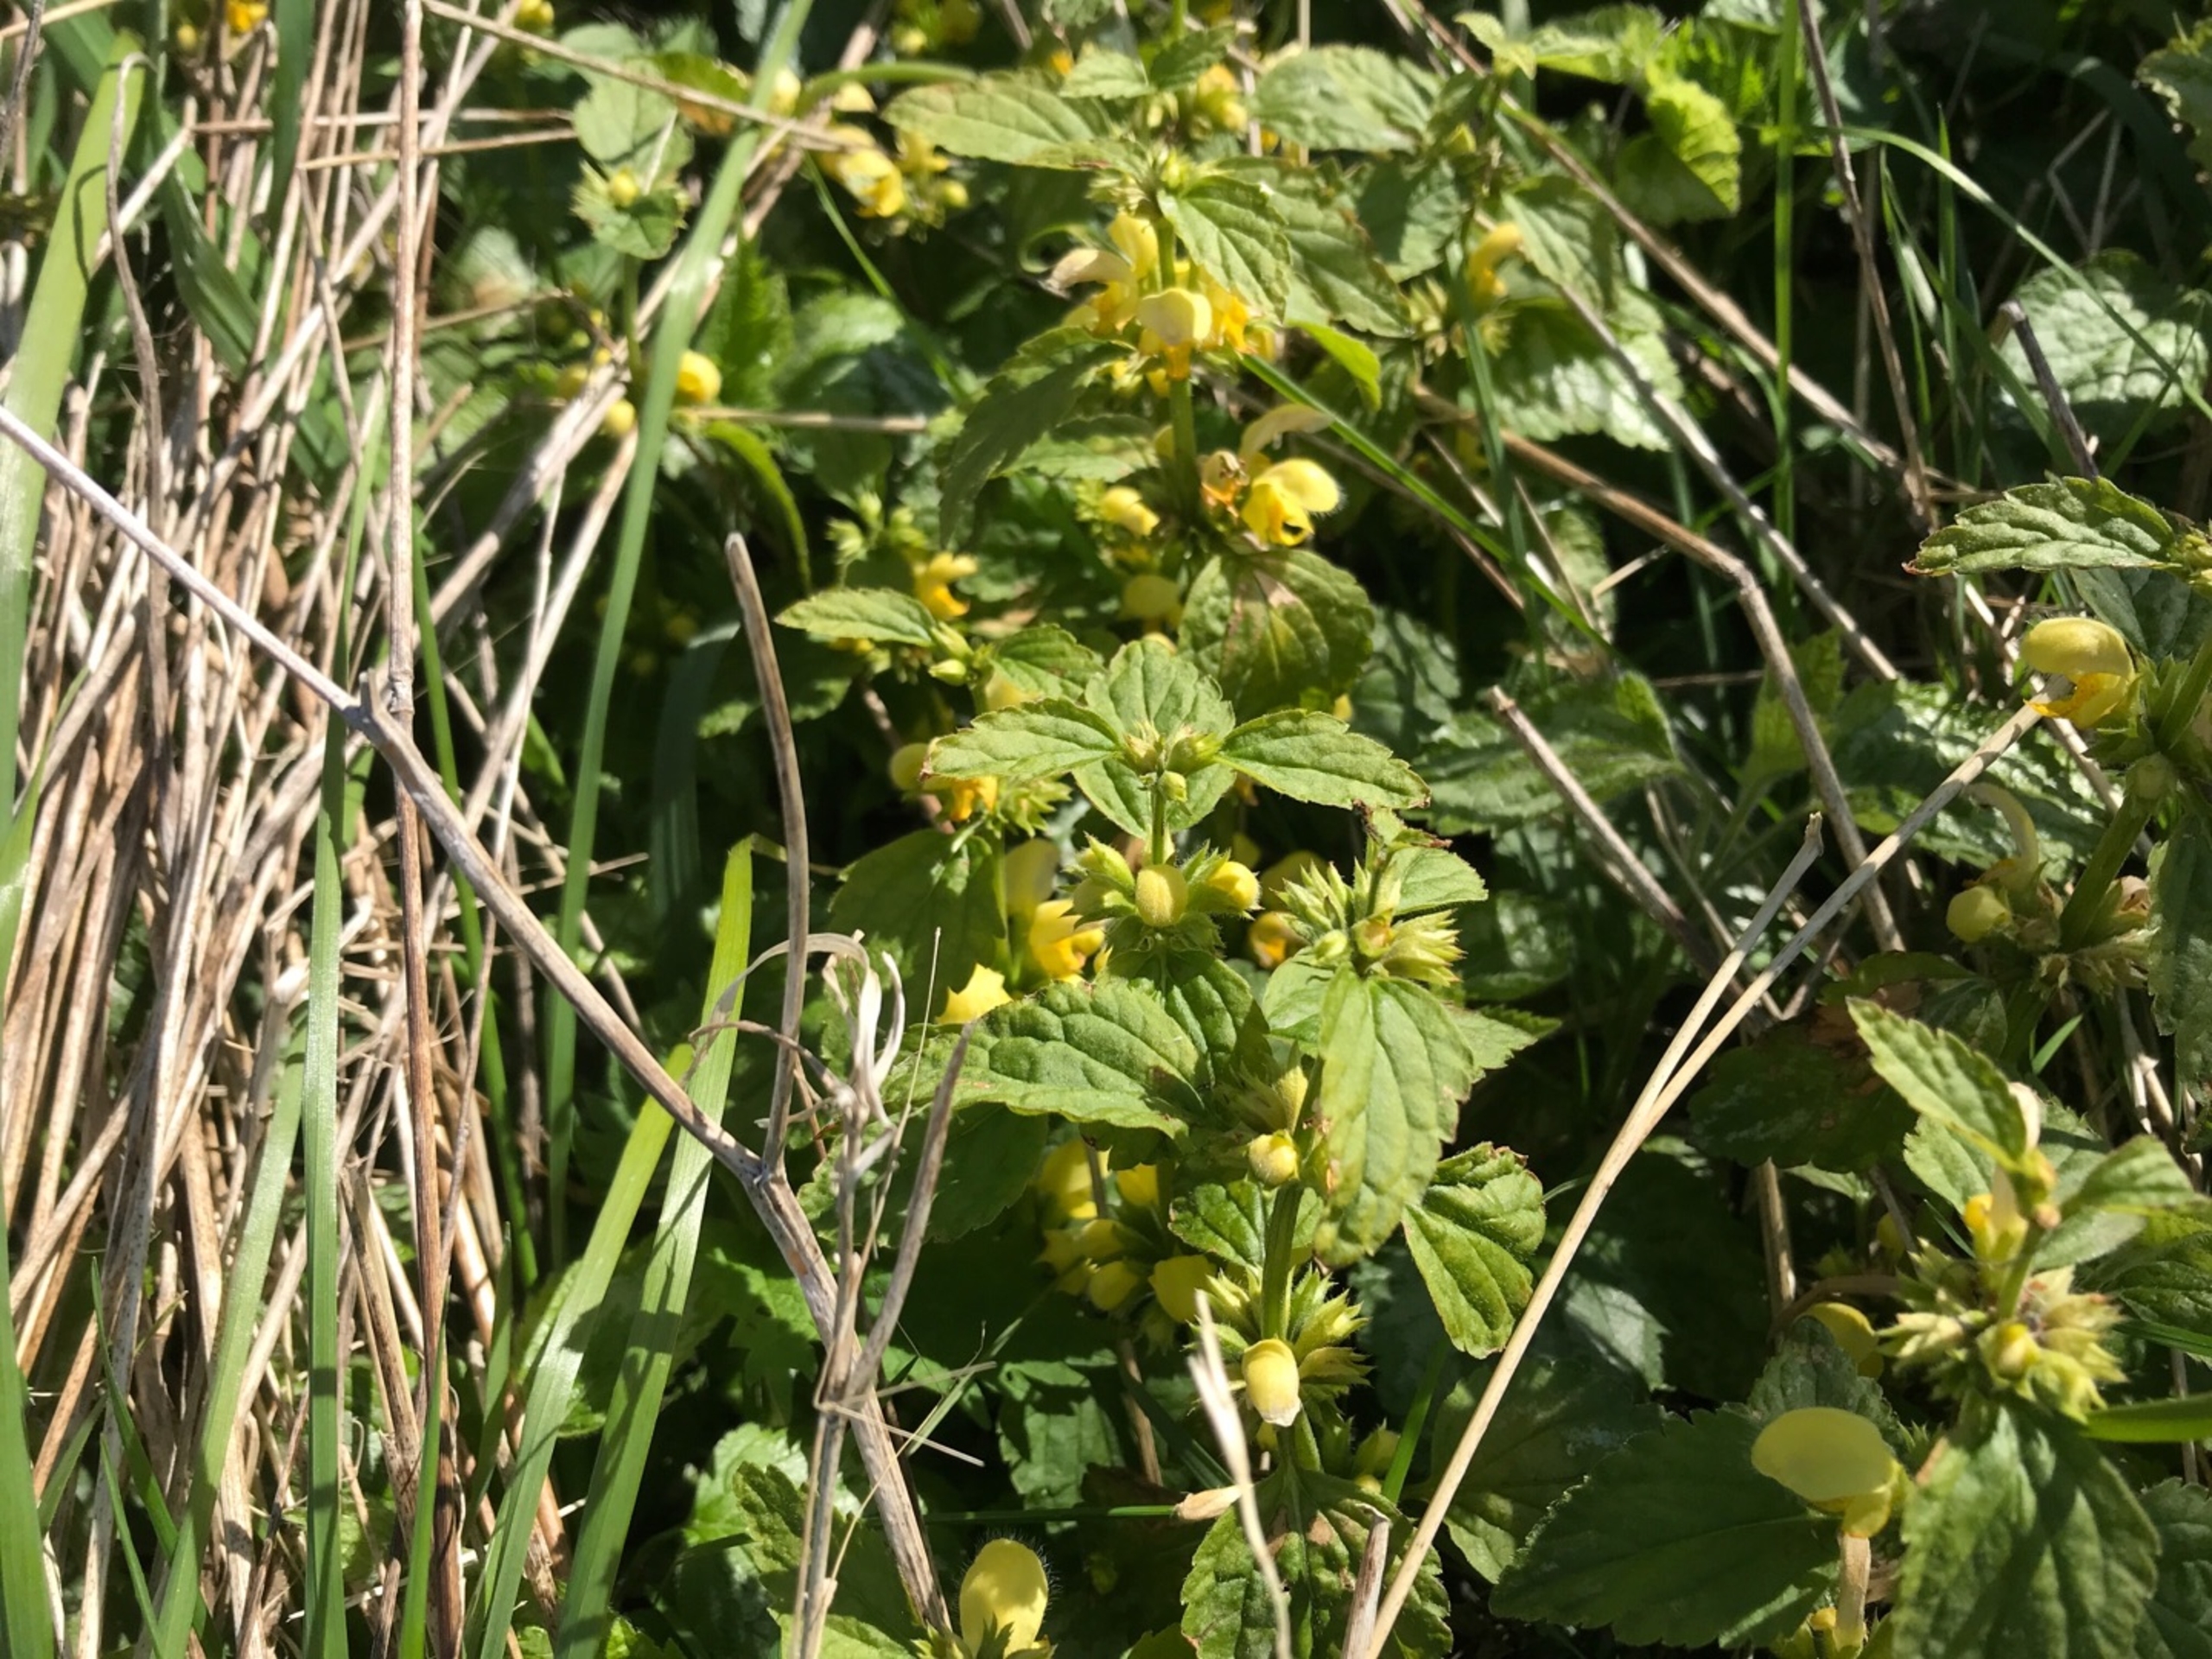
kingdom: Plantae
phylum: Tracheophyta
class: Magnoliopsida
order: Lamiales
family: Lamiaceae
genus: Lamium
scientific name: Lamium galeobdolon
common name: Guldnælde
